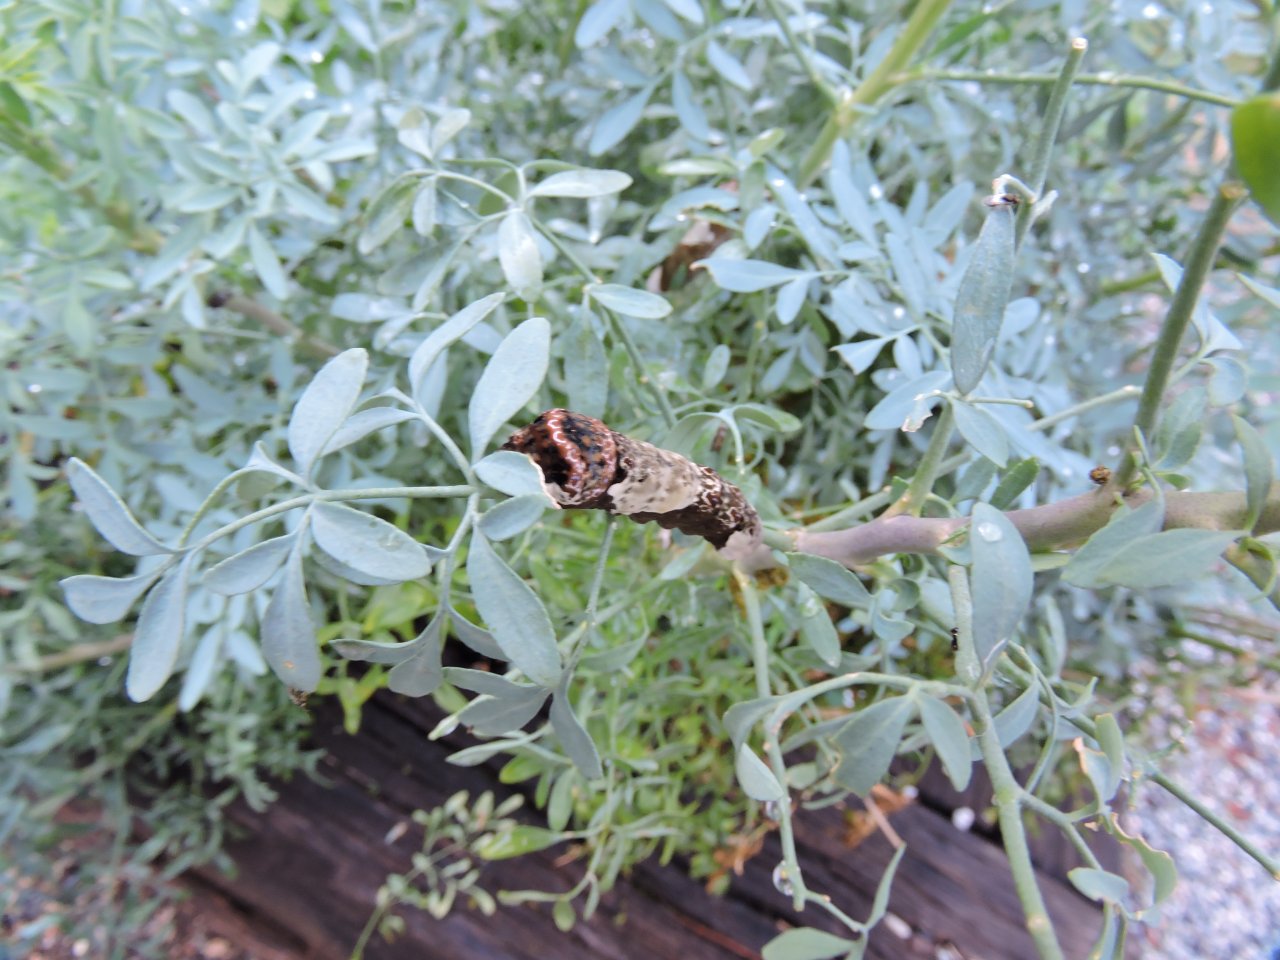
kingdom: Animalia
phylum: Arthropoda
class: Insecta
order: Lepidoptera
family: Papilionidae
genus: Papilio
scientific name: Papilio cresphontes
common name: Eastern Giant Swallowtail
